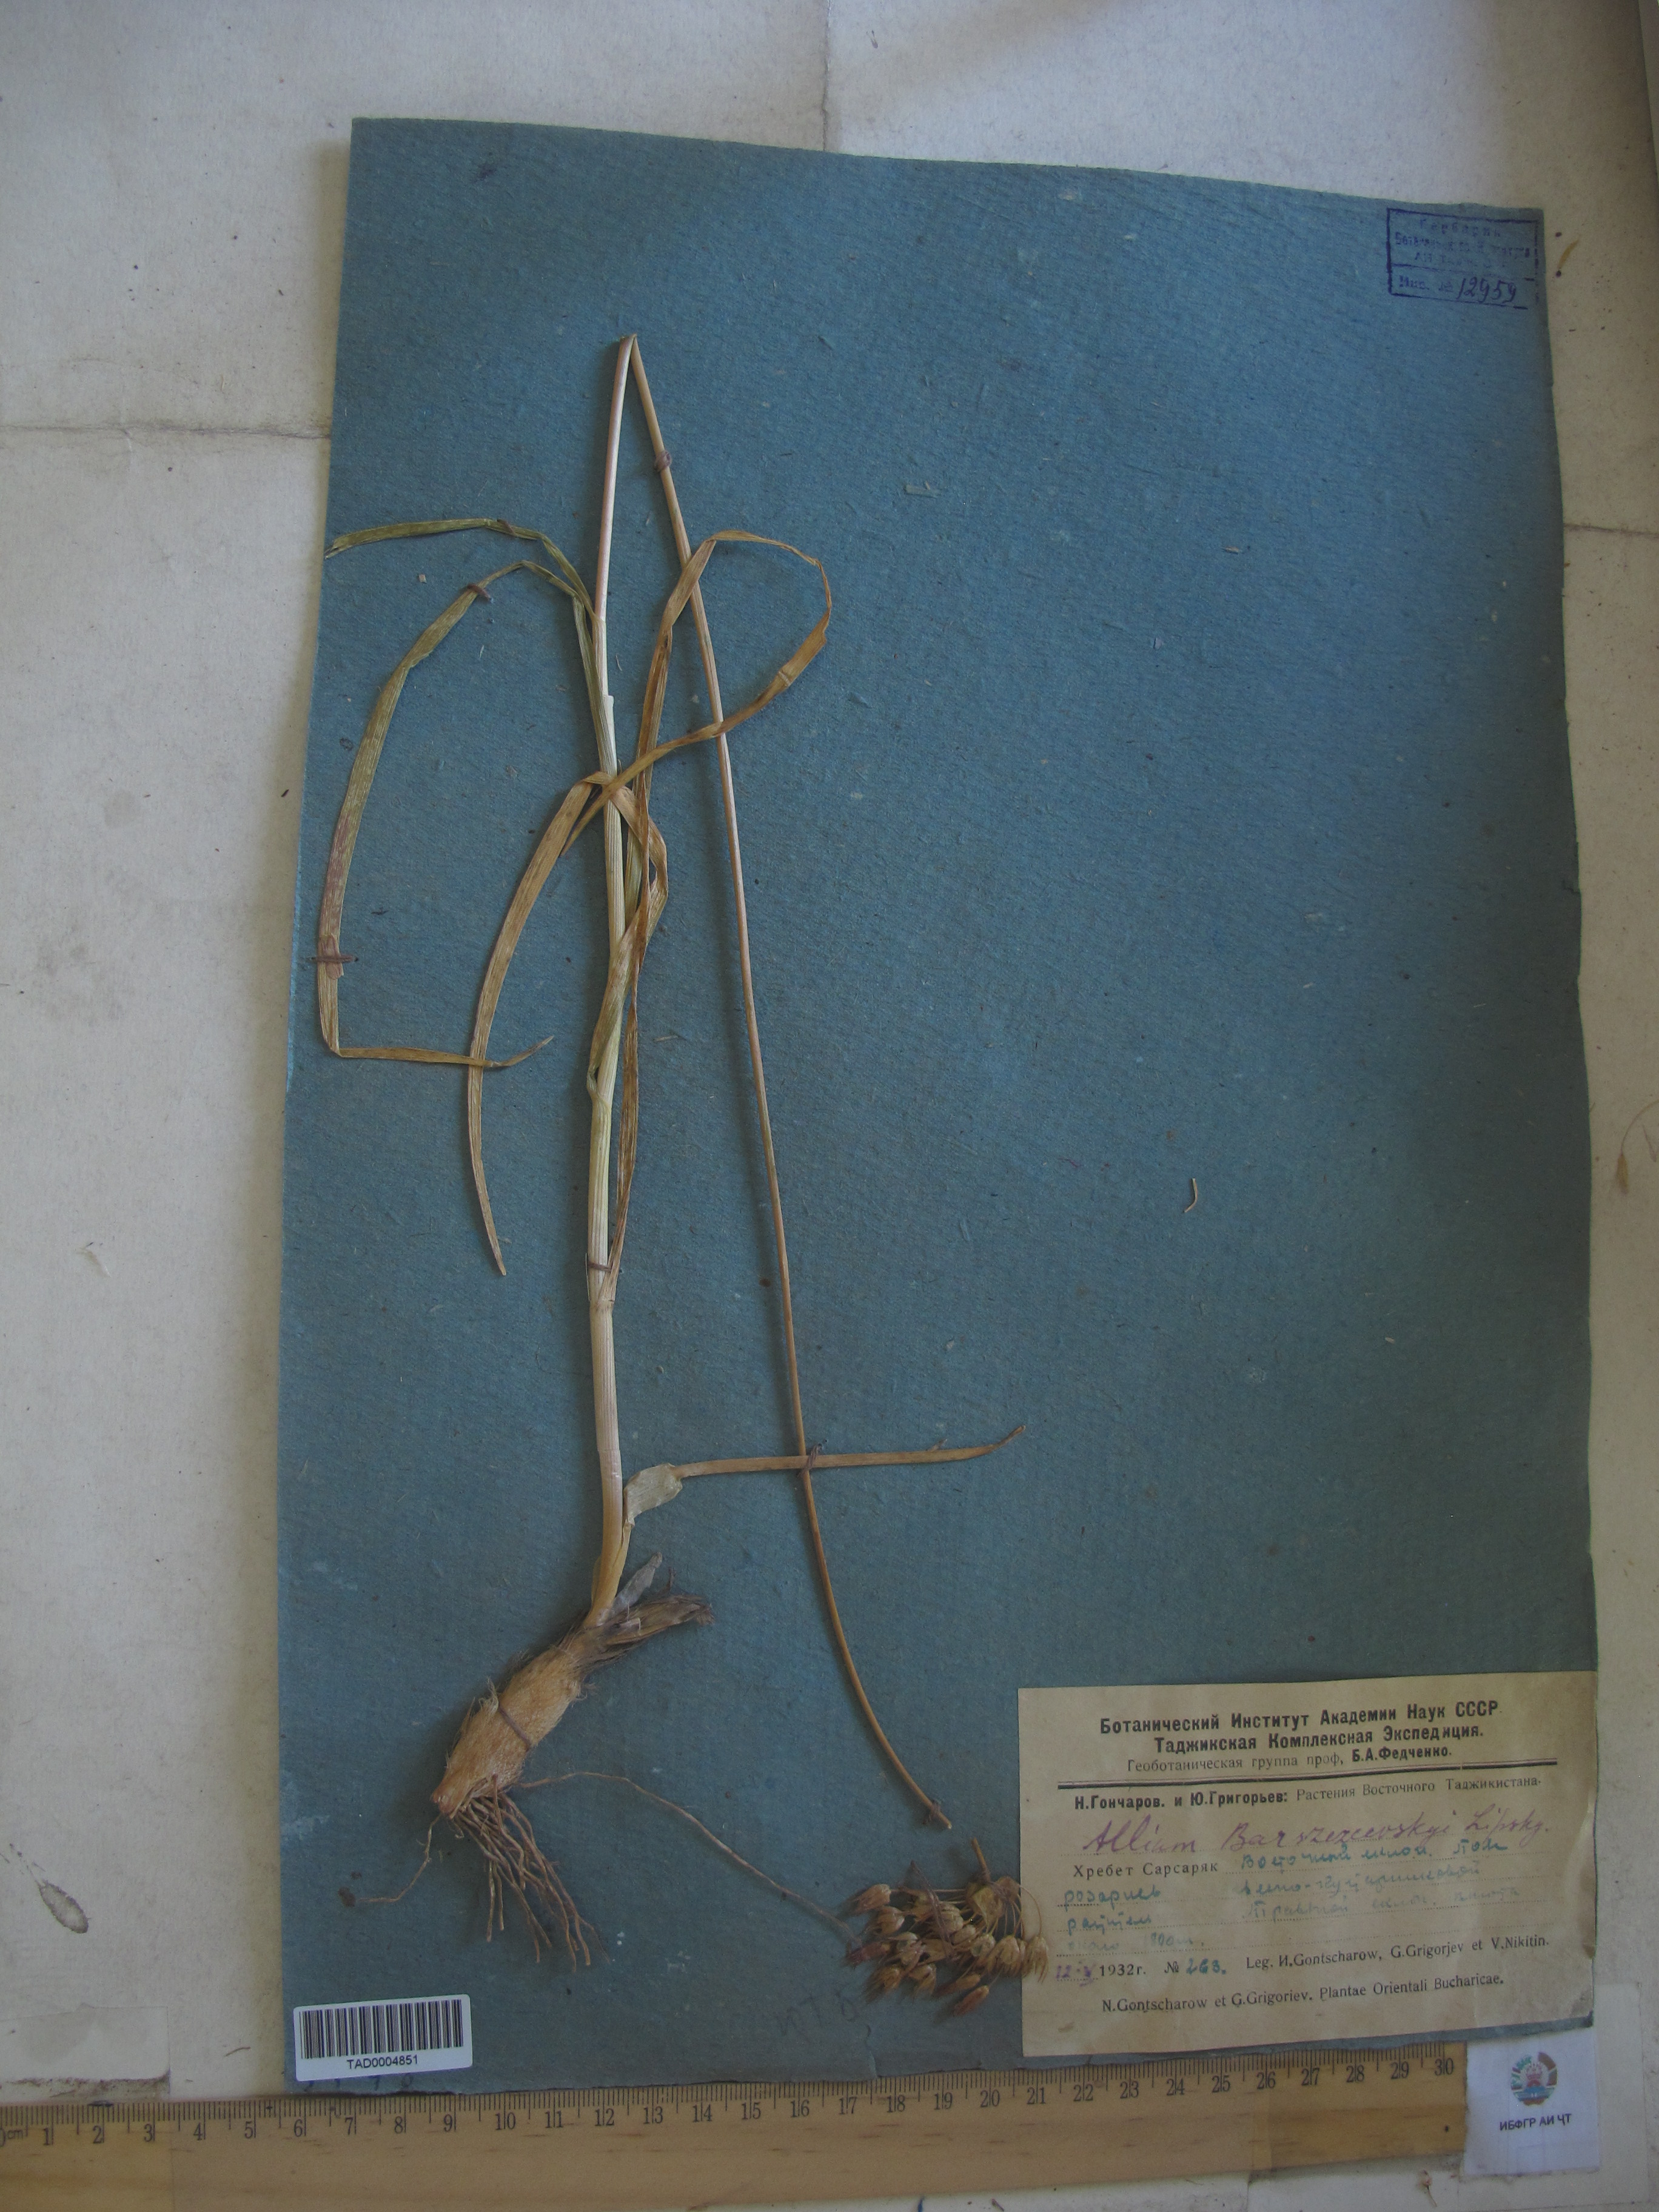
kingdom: Plantae
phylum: Tracheophyta
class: Liliopsida
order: Asparagales
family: Amaryllidaceae
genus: Allium
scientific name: Allium barsczewskii
